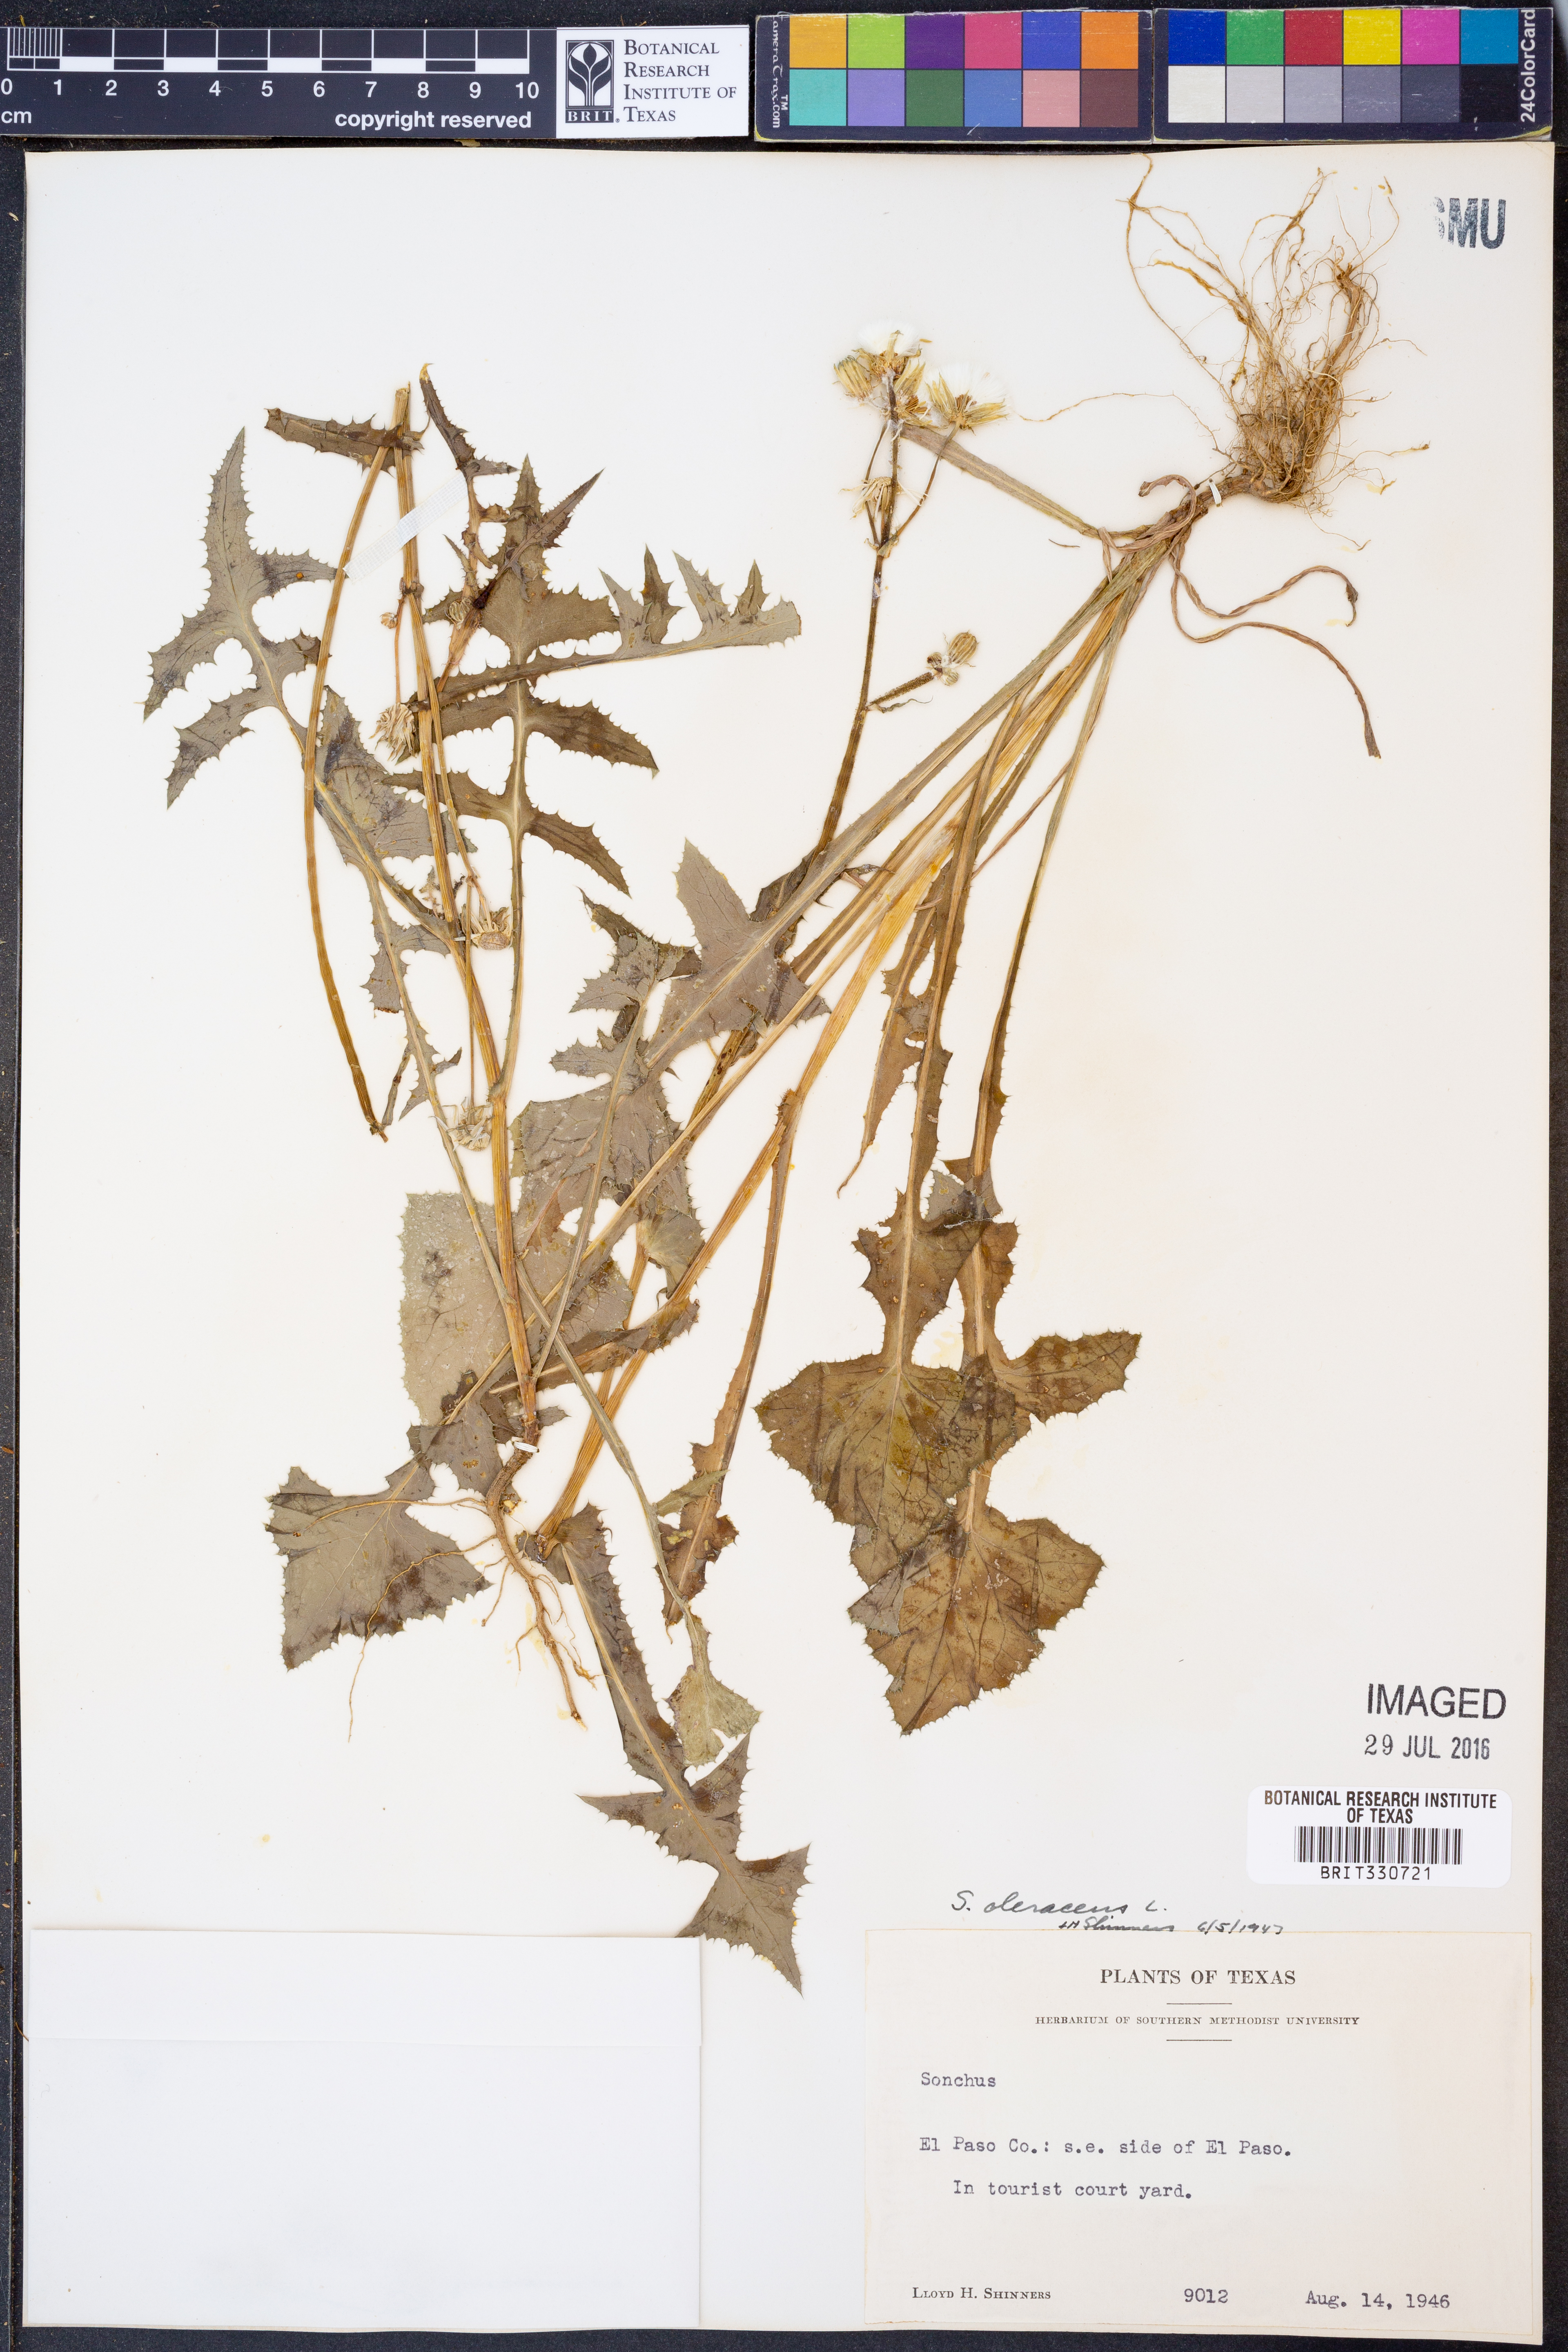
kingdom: Plantae
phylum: Tracheophyta
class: Magnoliopsida
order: Asterales
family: Asteraceae
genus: Sonchus
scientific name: Sonchus oleraceus
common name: Common sowthistle
